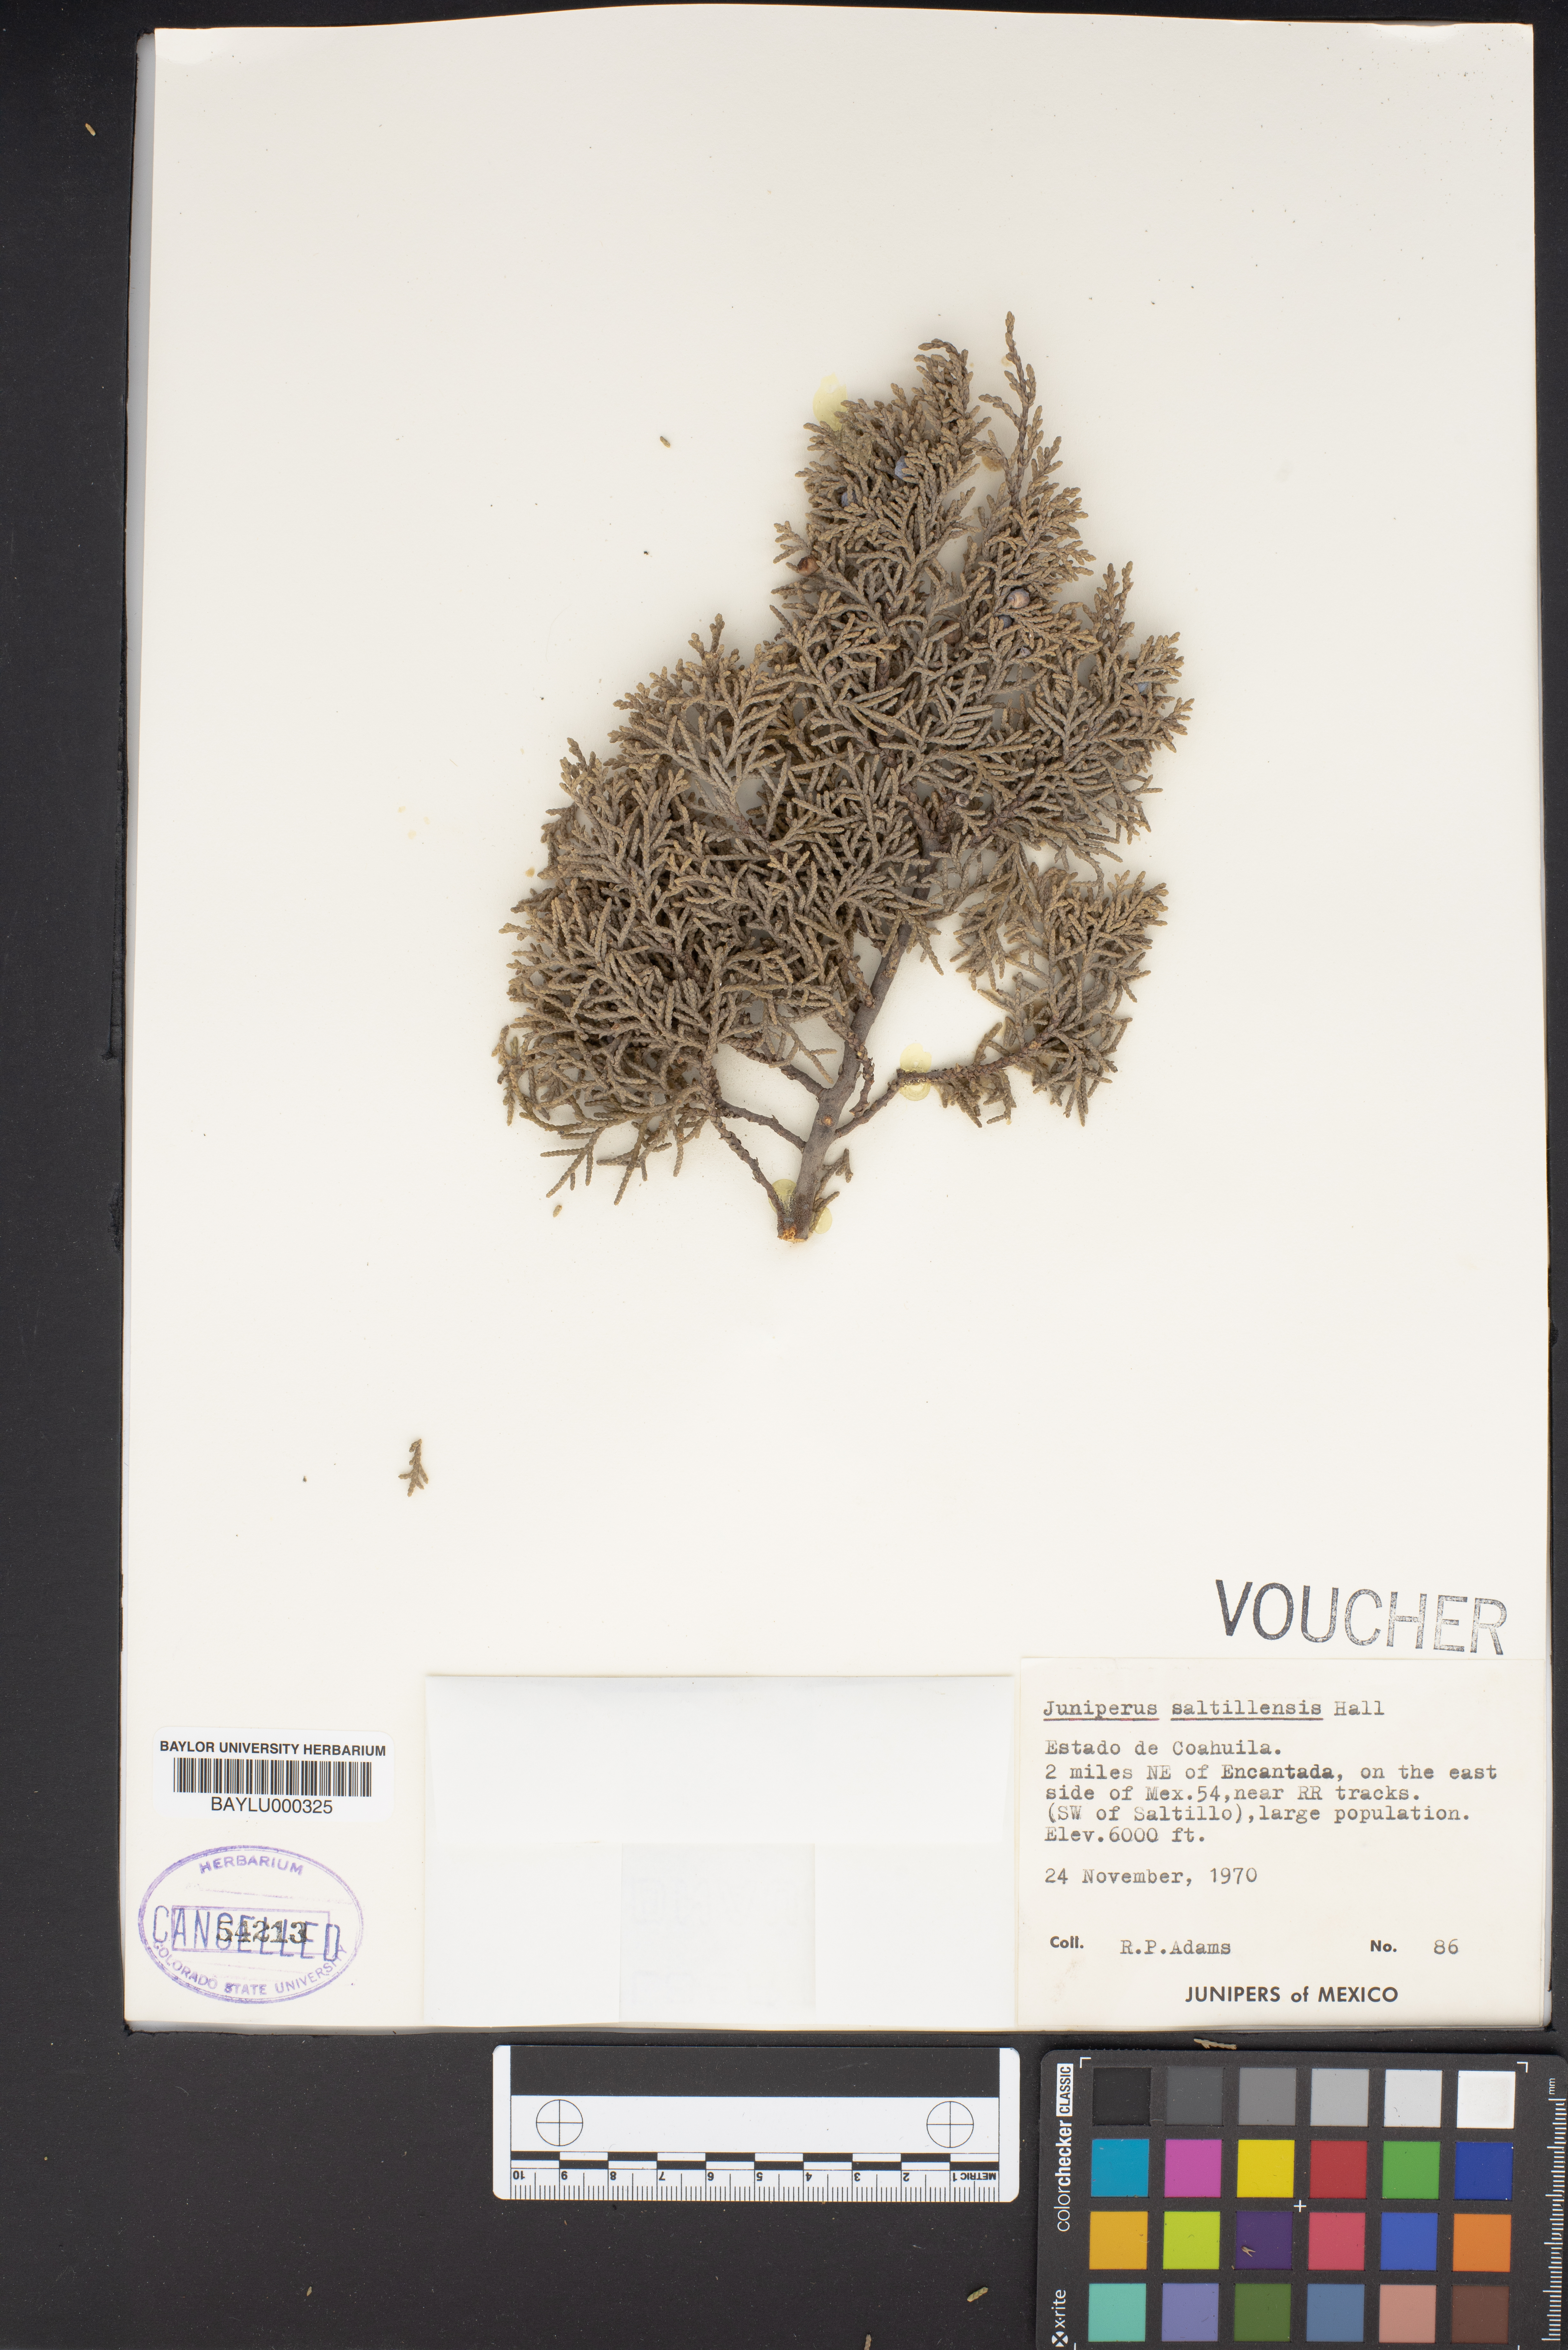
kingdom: Plantae
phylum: Tracheophyta
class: Pinopsida
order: Pinales
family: Cupressaceae
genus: Juniperus
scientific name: Juniperus saltillensis
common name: Saltillo juniper
